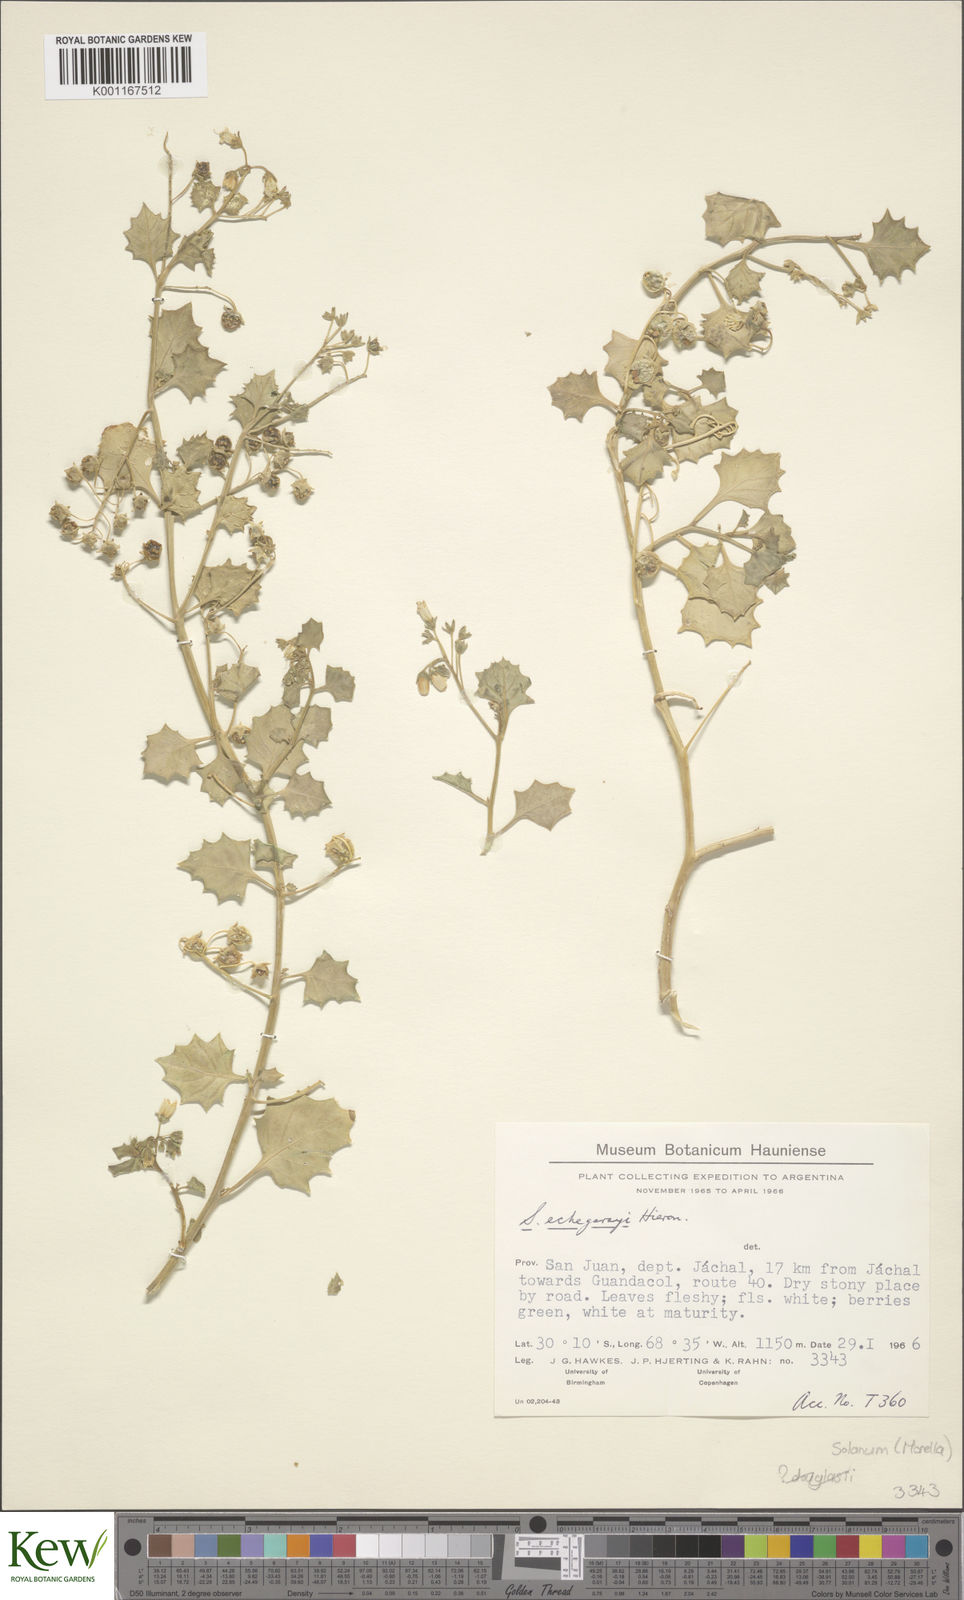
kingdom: Plantae
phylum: Tracheophyta
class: Magnoliopsida
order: Solanales
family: Solanaceae
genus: Solanum
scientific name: Solanum echegarayi
